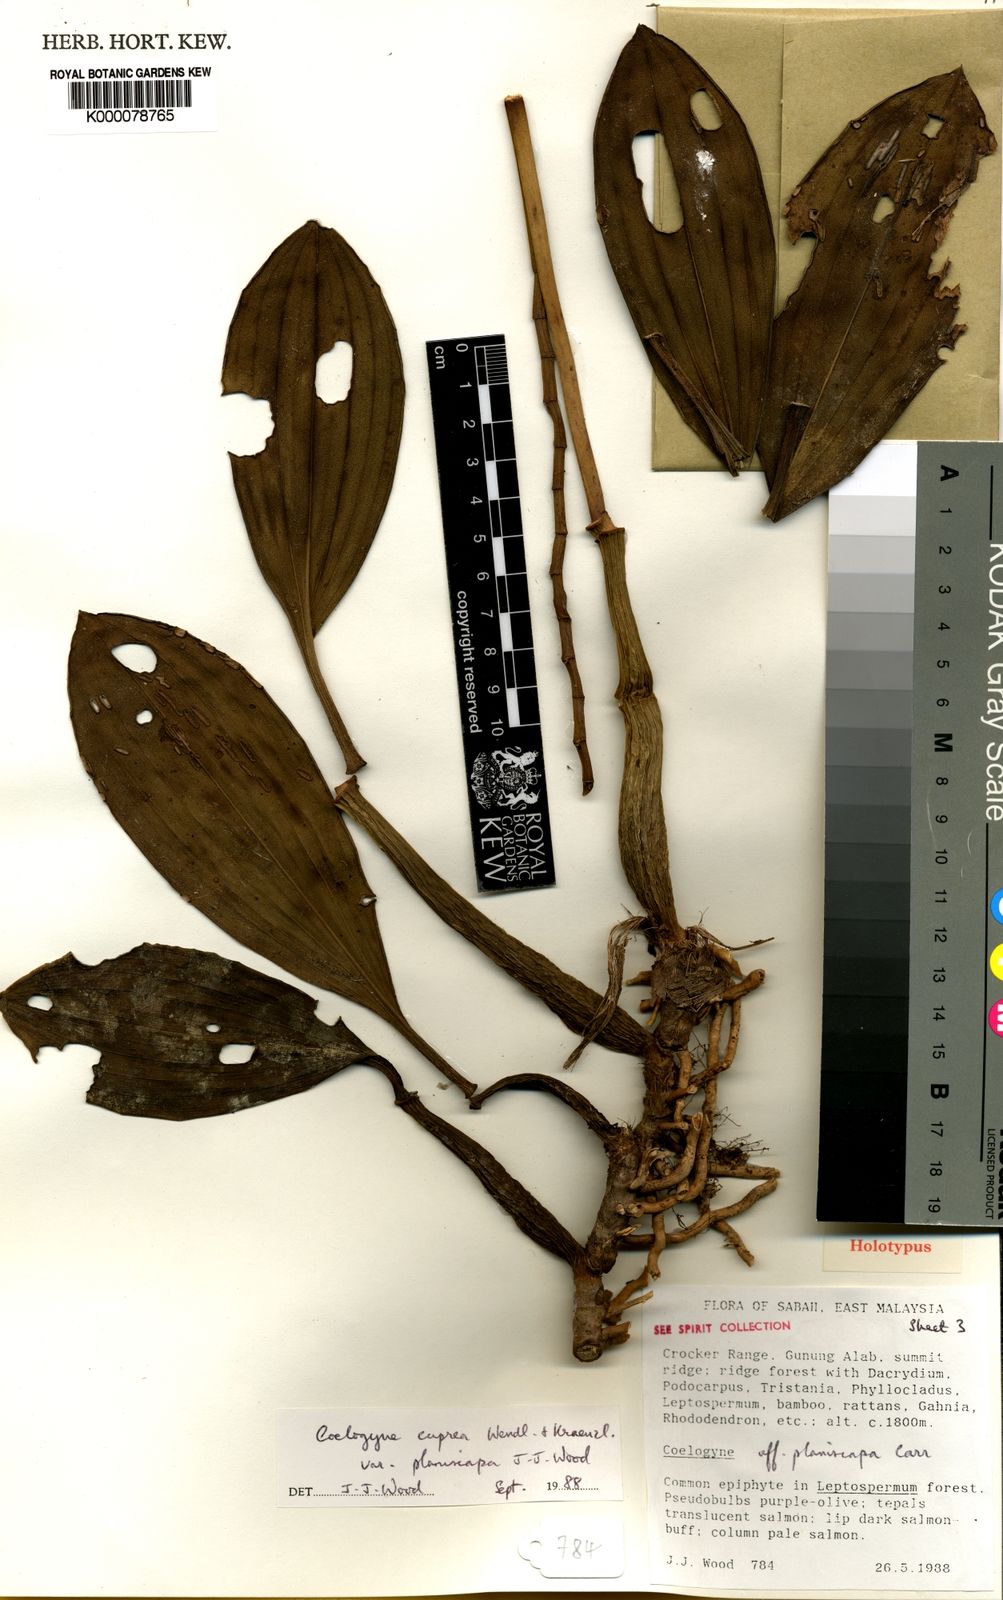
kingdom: Plantae
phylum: Tracheophyta
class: Liliopsida
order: Asparagales
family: Orchidaceae
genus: Coelogyne
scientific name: Coelogyne cuprea
